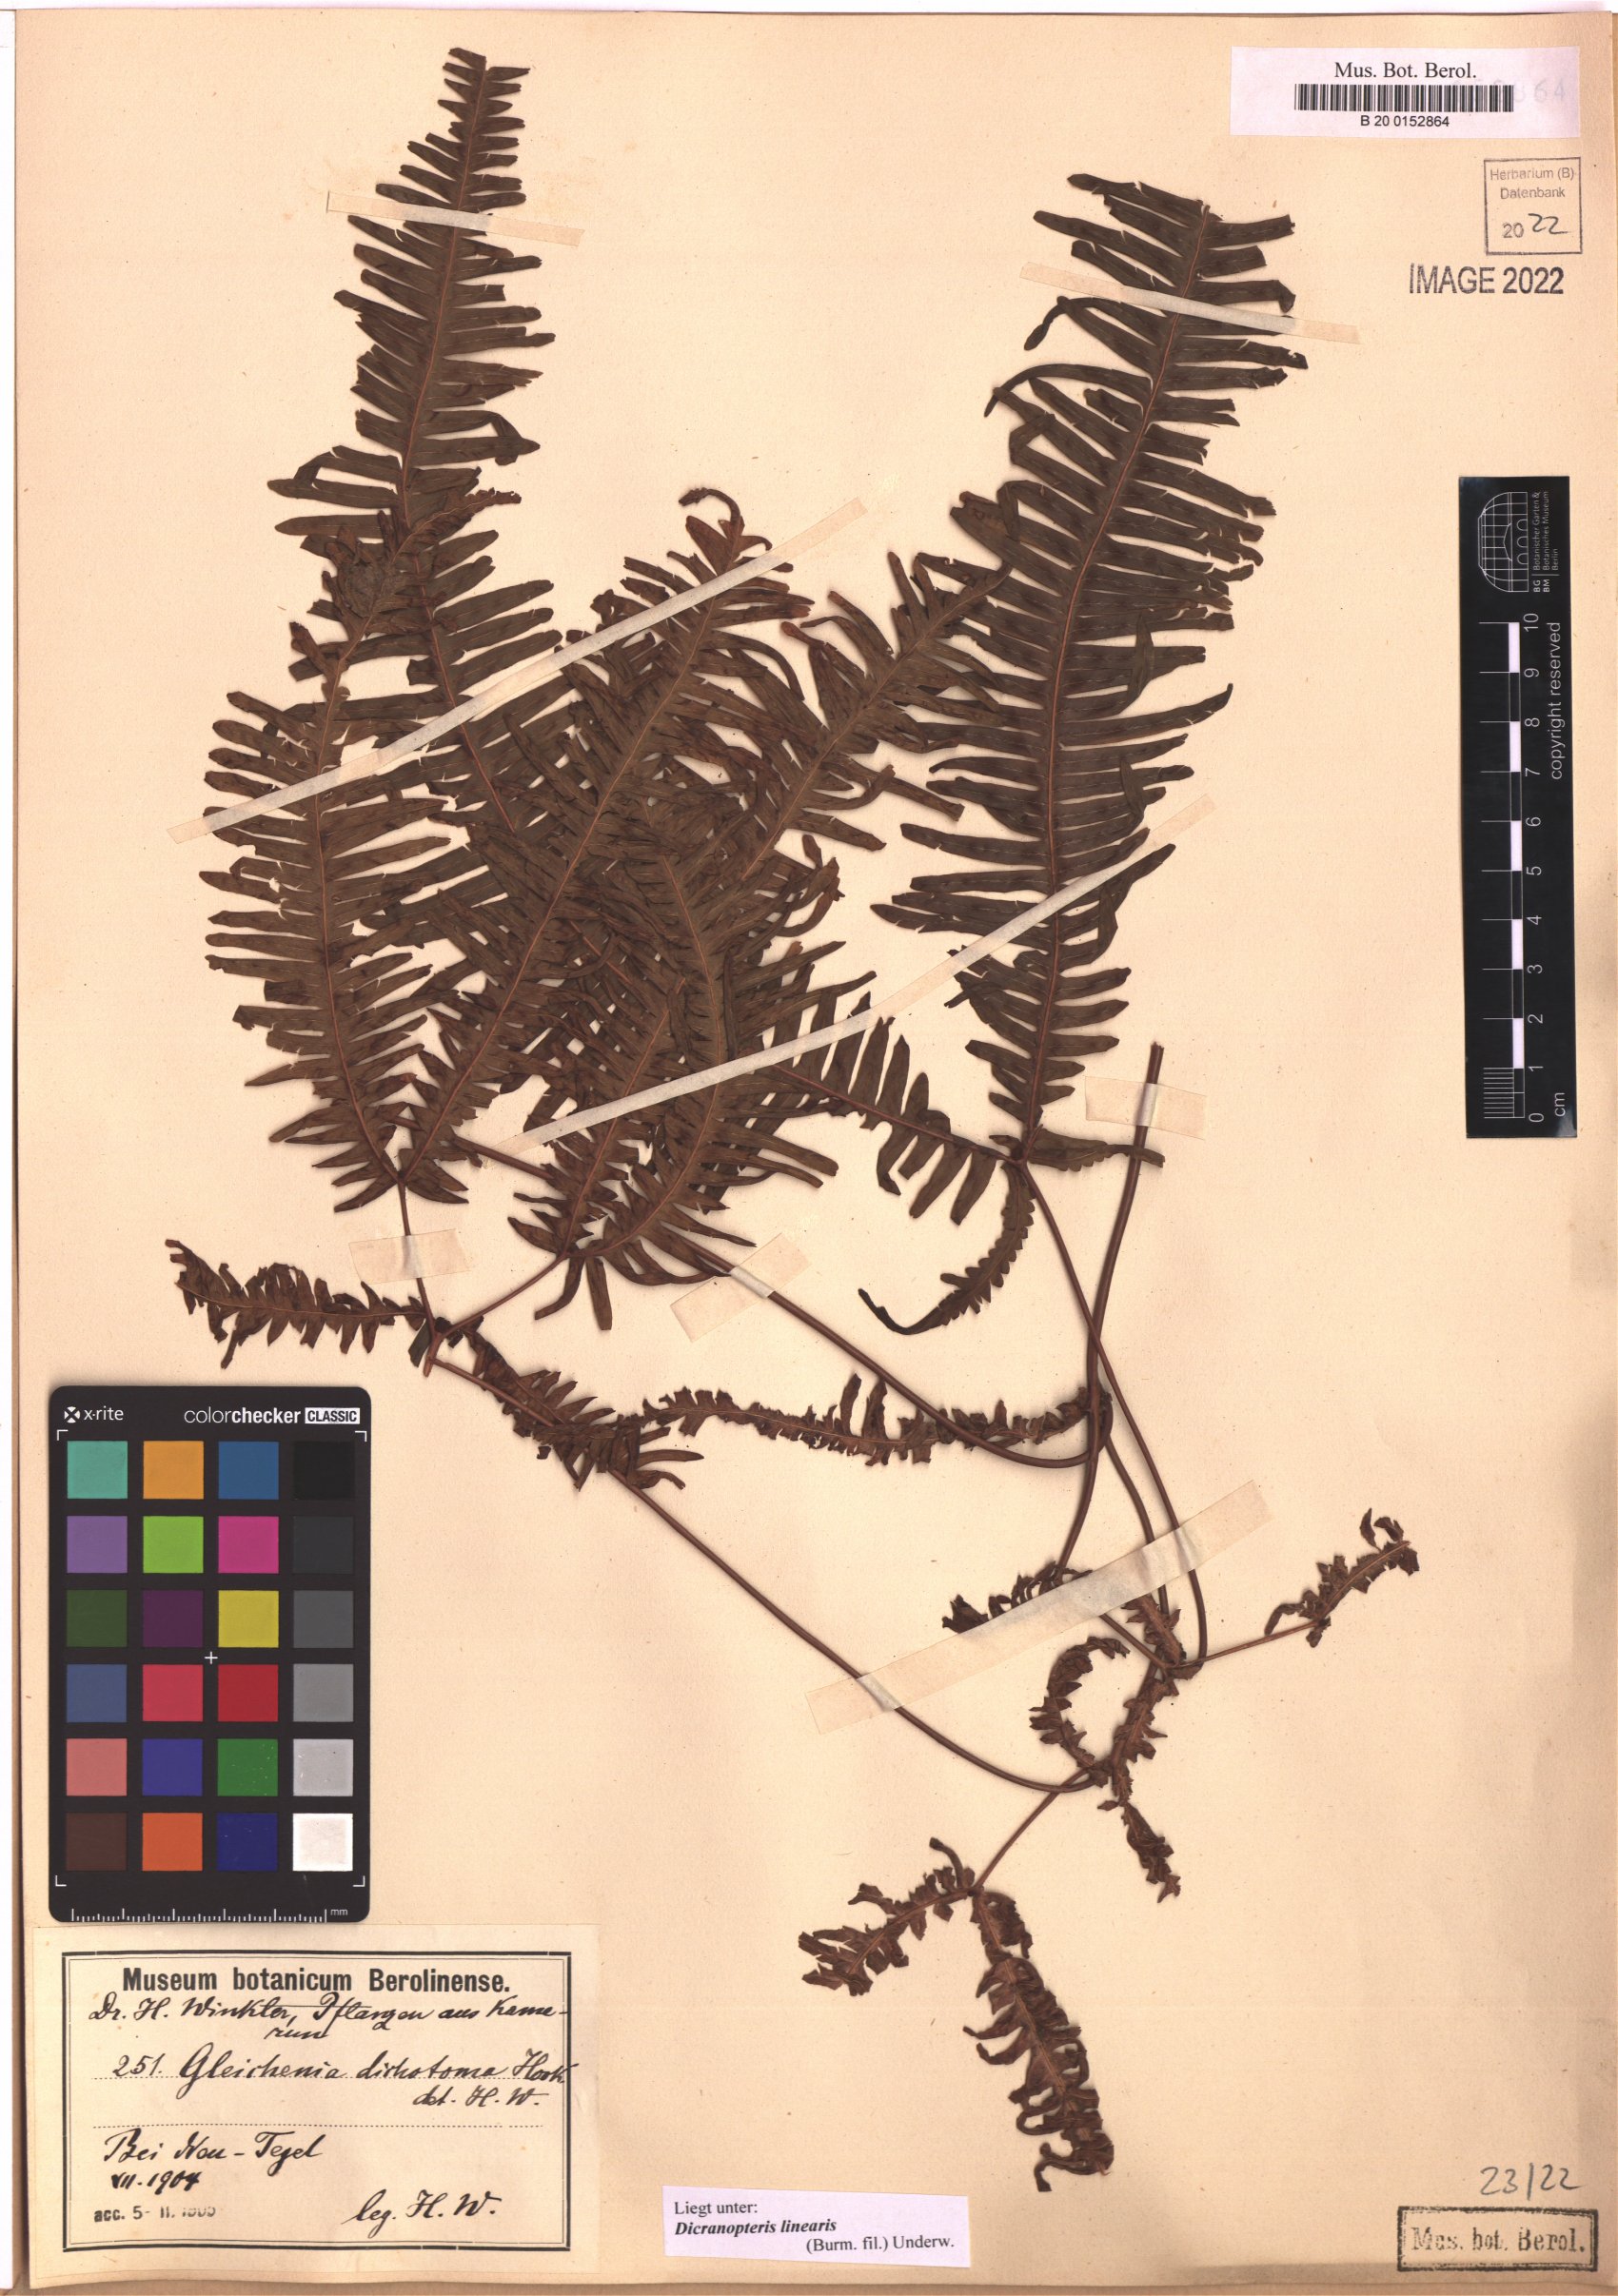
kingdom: Plantae
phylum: Tracheophyta
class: Polypodiopsida
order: Gleicheniales
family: Gleicheniaceae
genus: Dicranopteris
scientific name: Dicranopteris linearis
